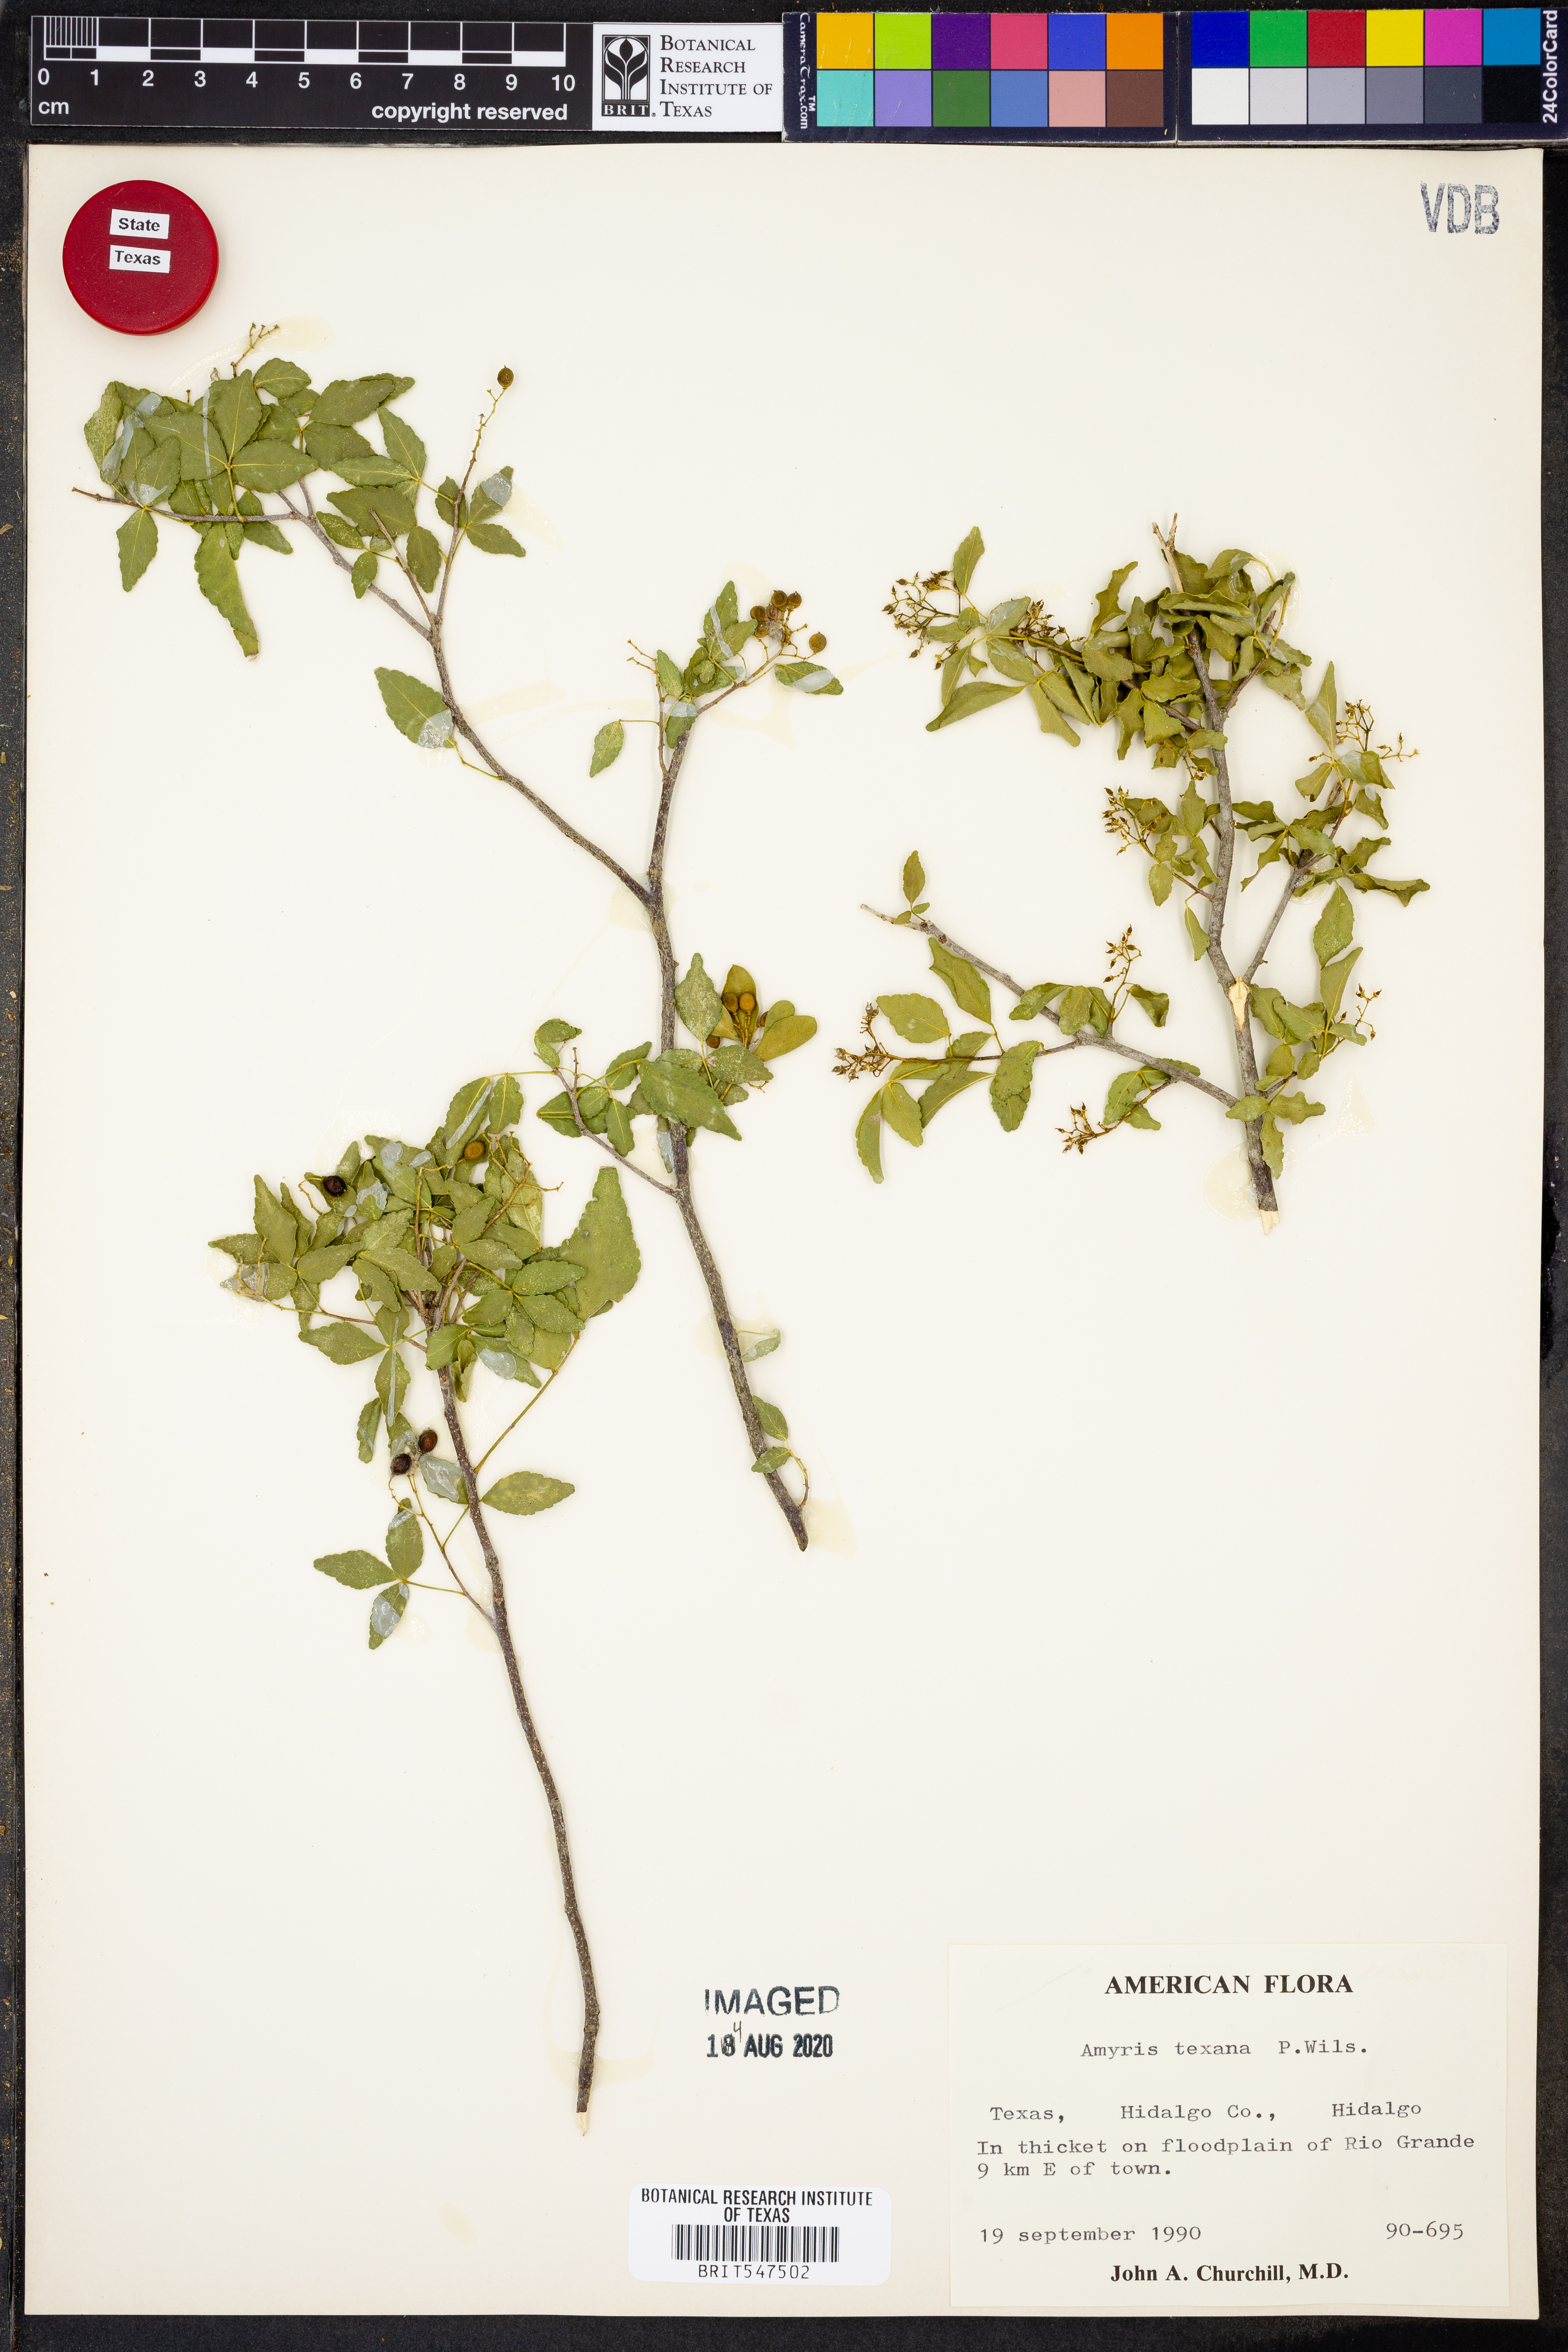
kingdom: Plantae
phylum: Tracheophyta
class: Magnoliopsida
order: Sapindales
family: Rutaceae
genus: Amyris
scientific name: Amyris texana
